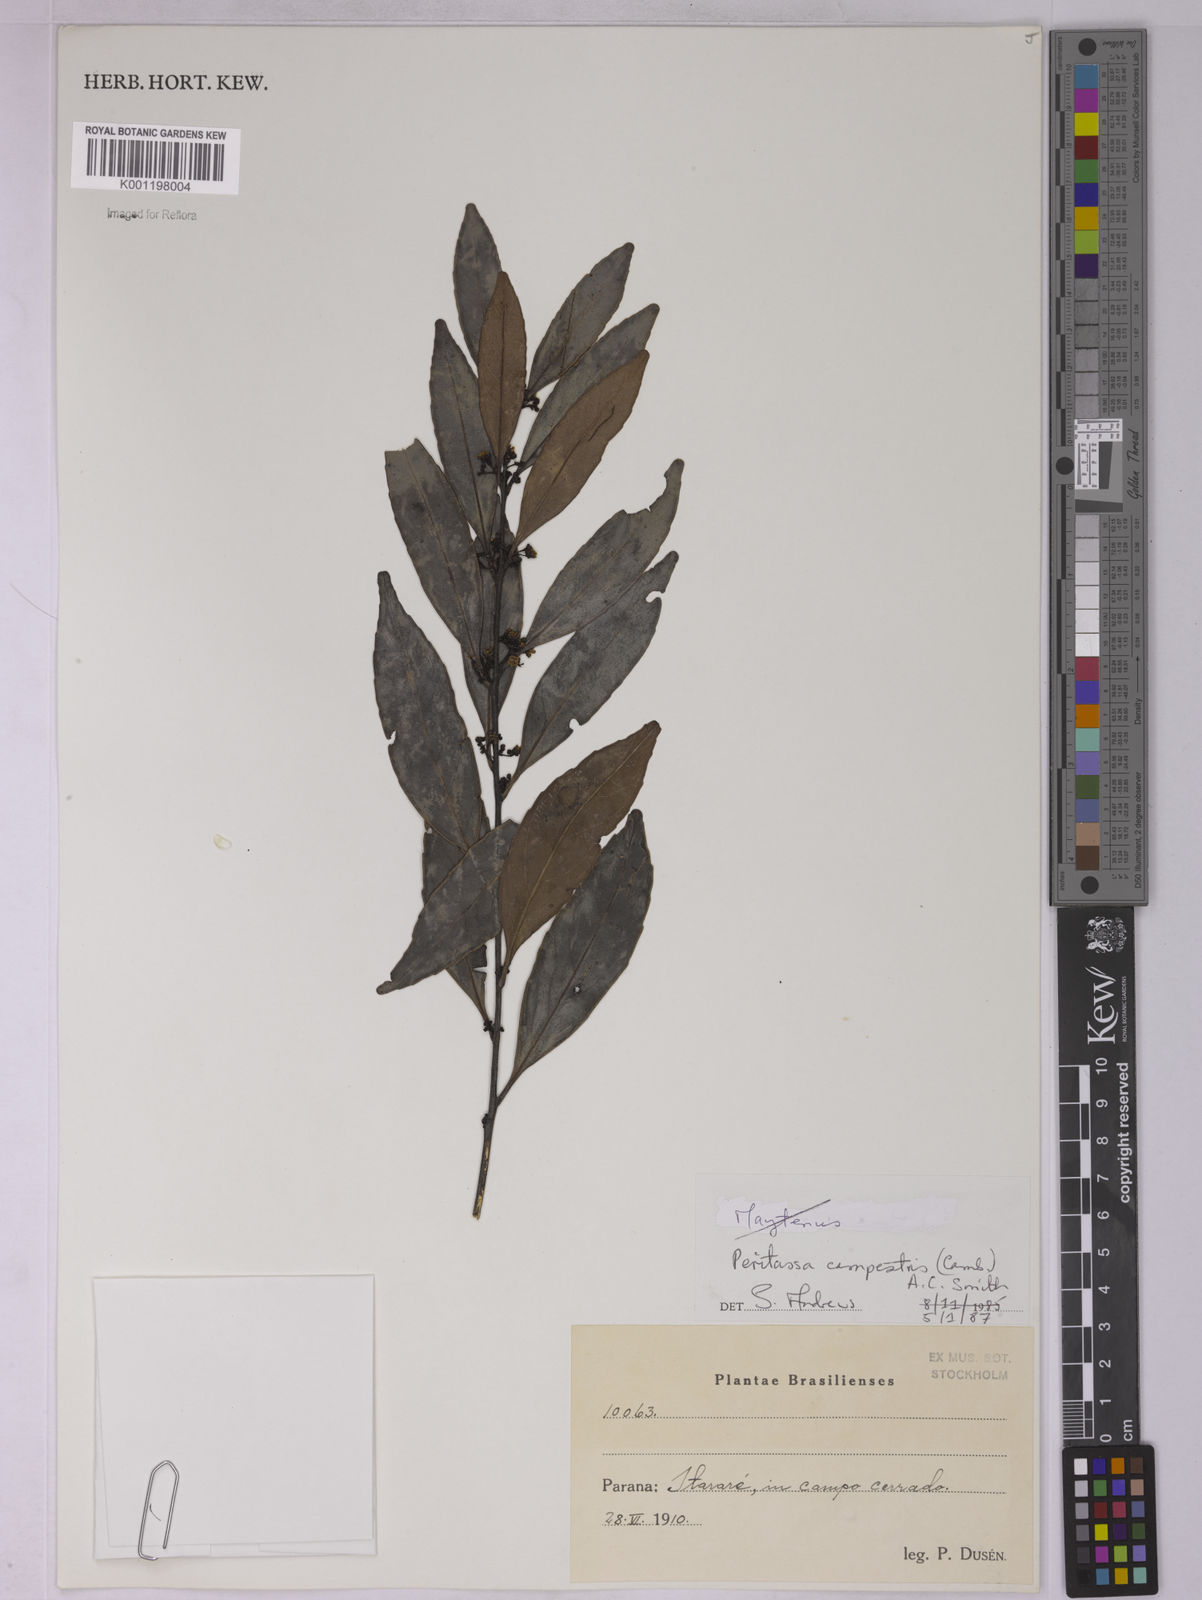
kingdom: Plantae
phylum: Tracheophyta
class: Magnoliopsida
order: Celastrales
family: Celastraceae
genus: Peritassa
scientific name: Peritassa campestris
